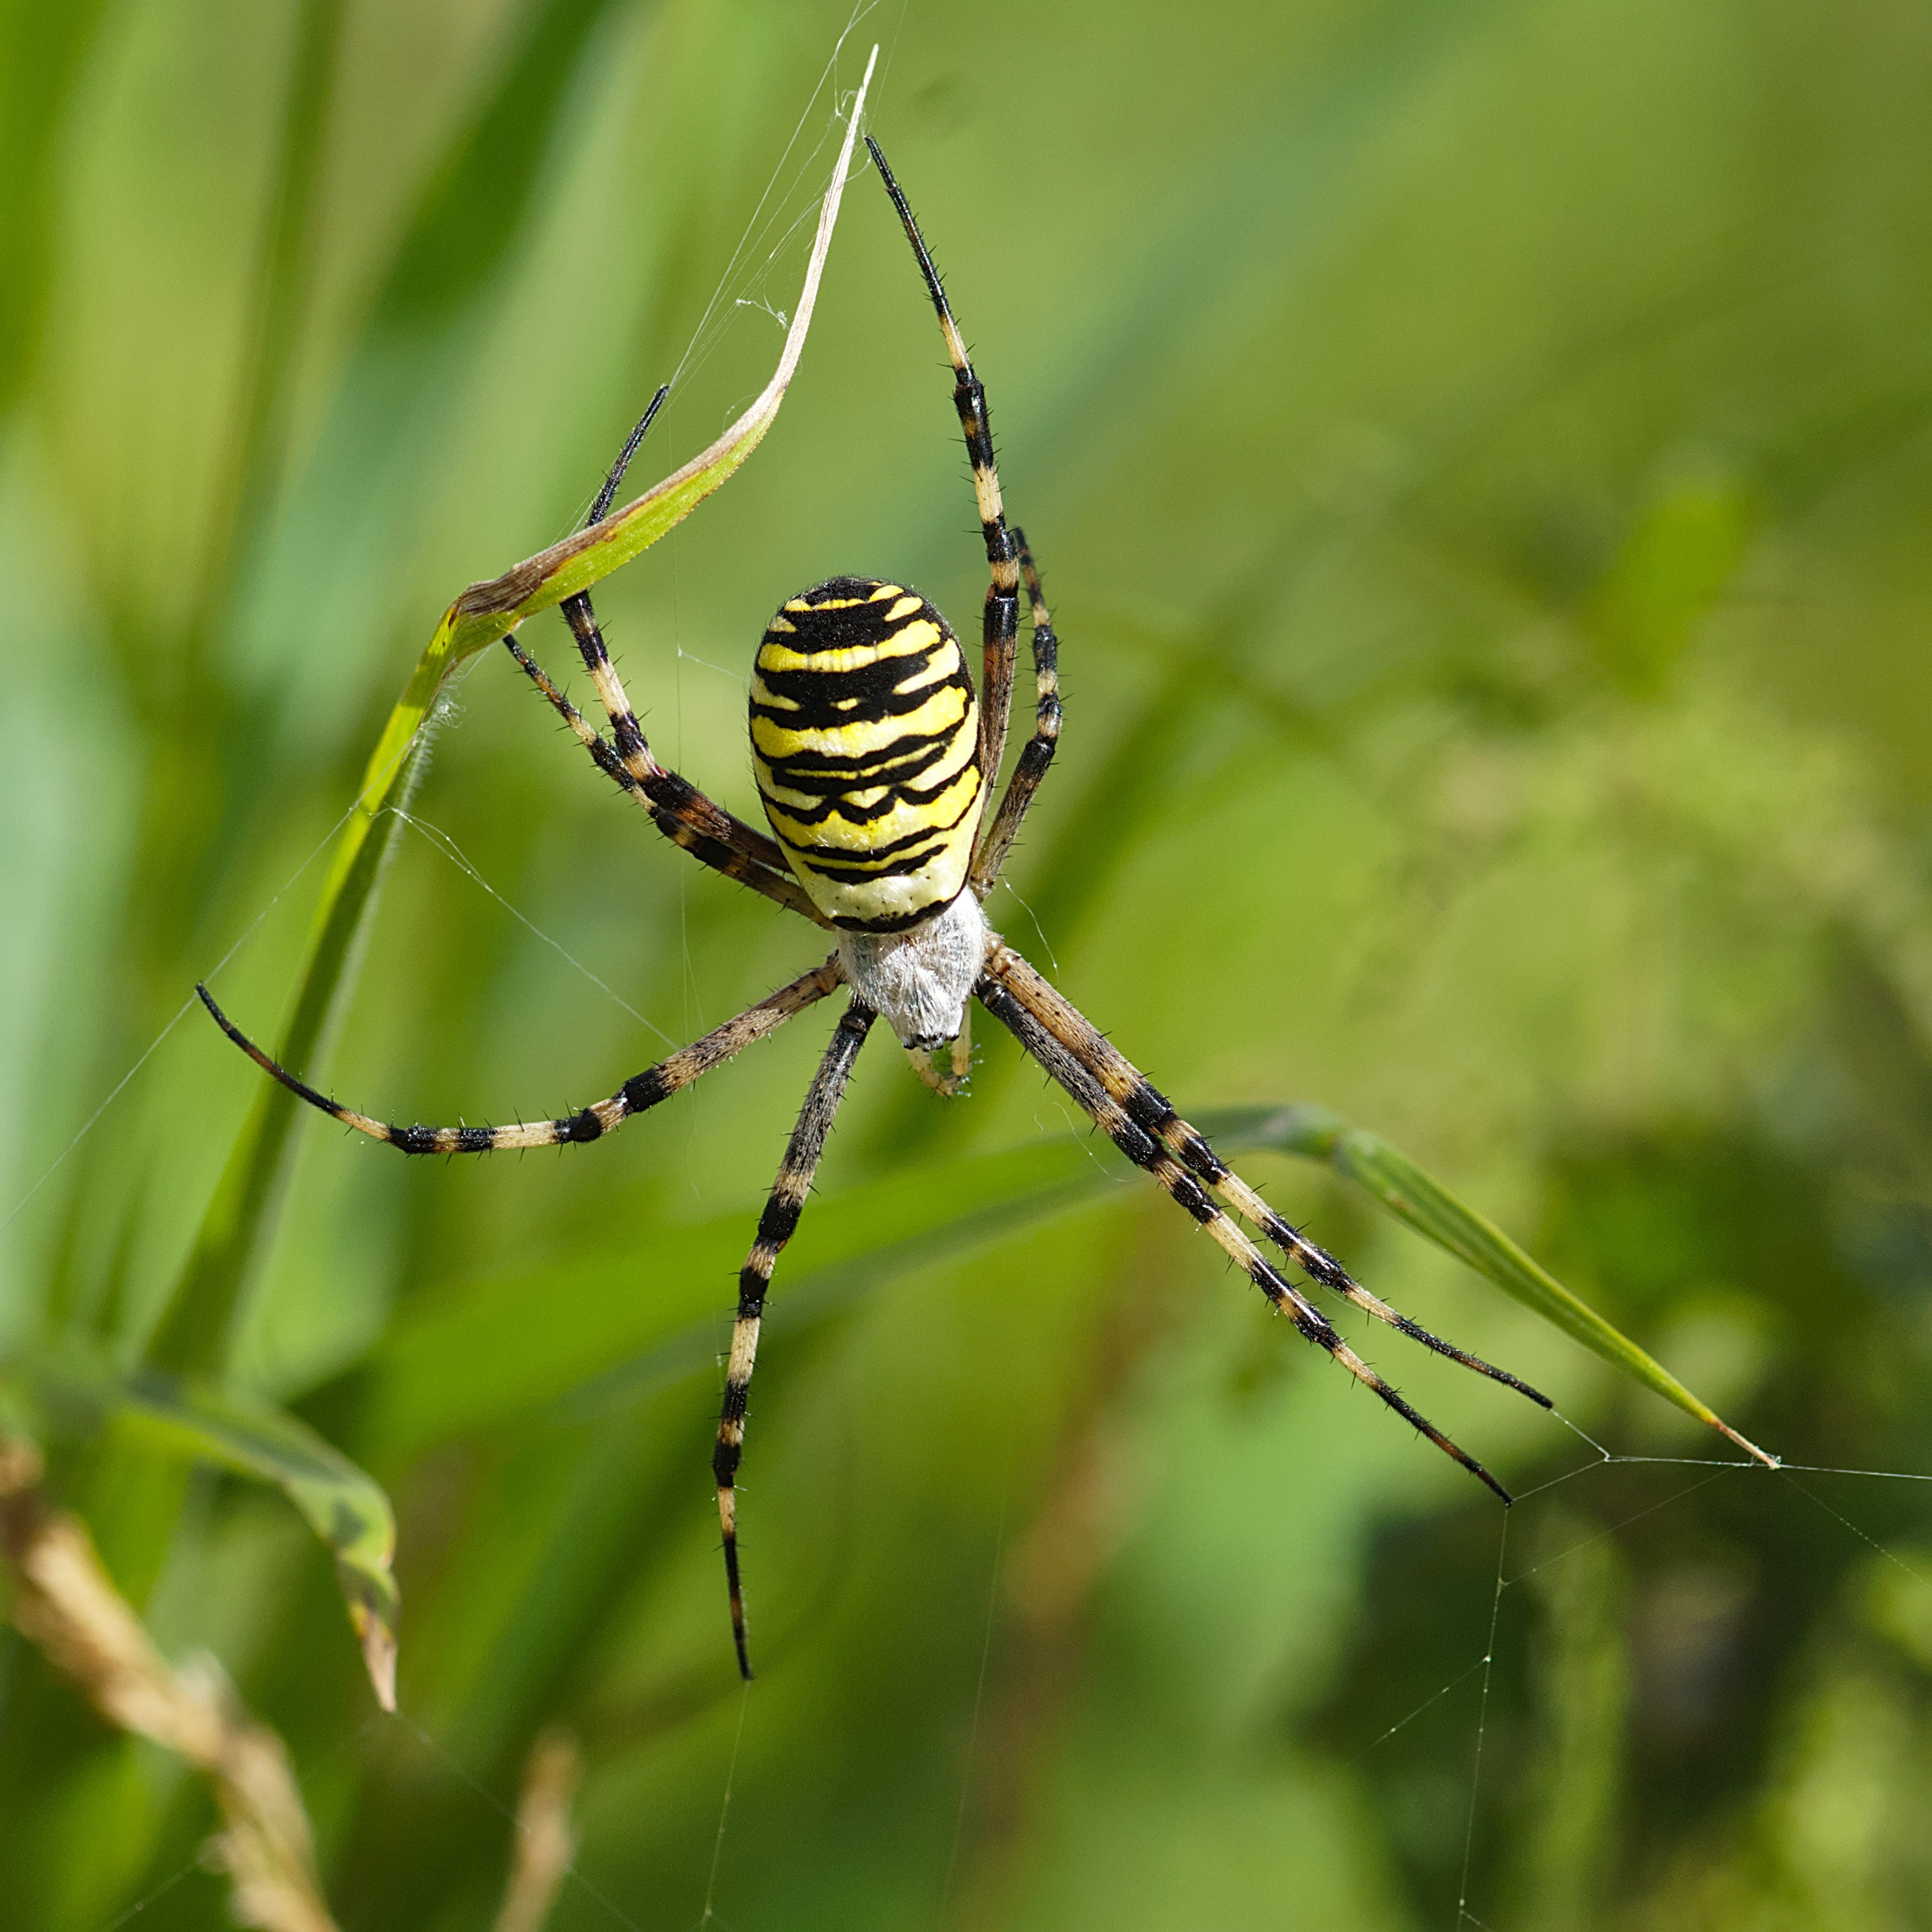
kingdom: Animalia
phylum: Arthropoda
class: Arachnida
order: Araneae
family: Araneidae
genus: Argiope
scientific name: Argiope bruennichi
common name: Hvepseedderkop
